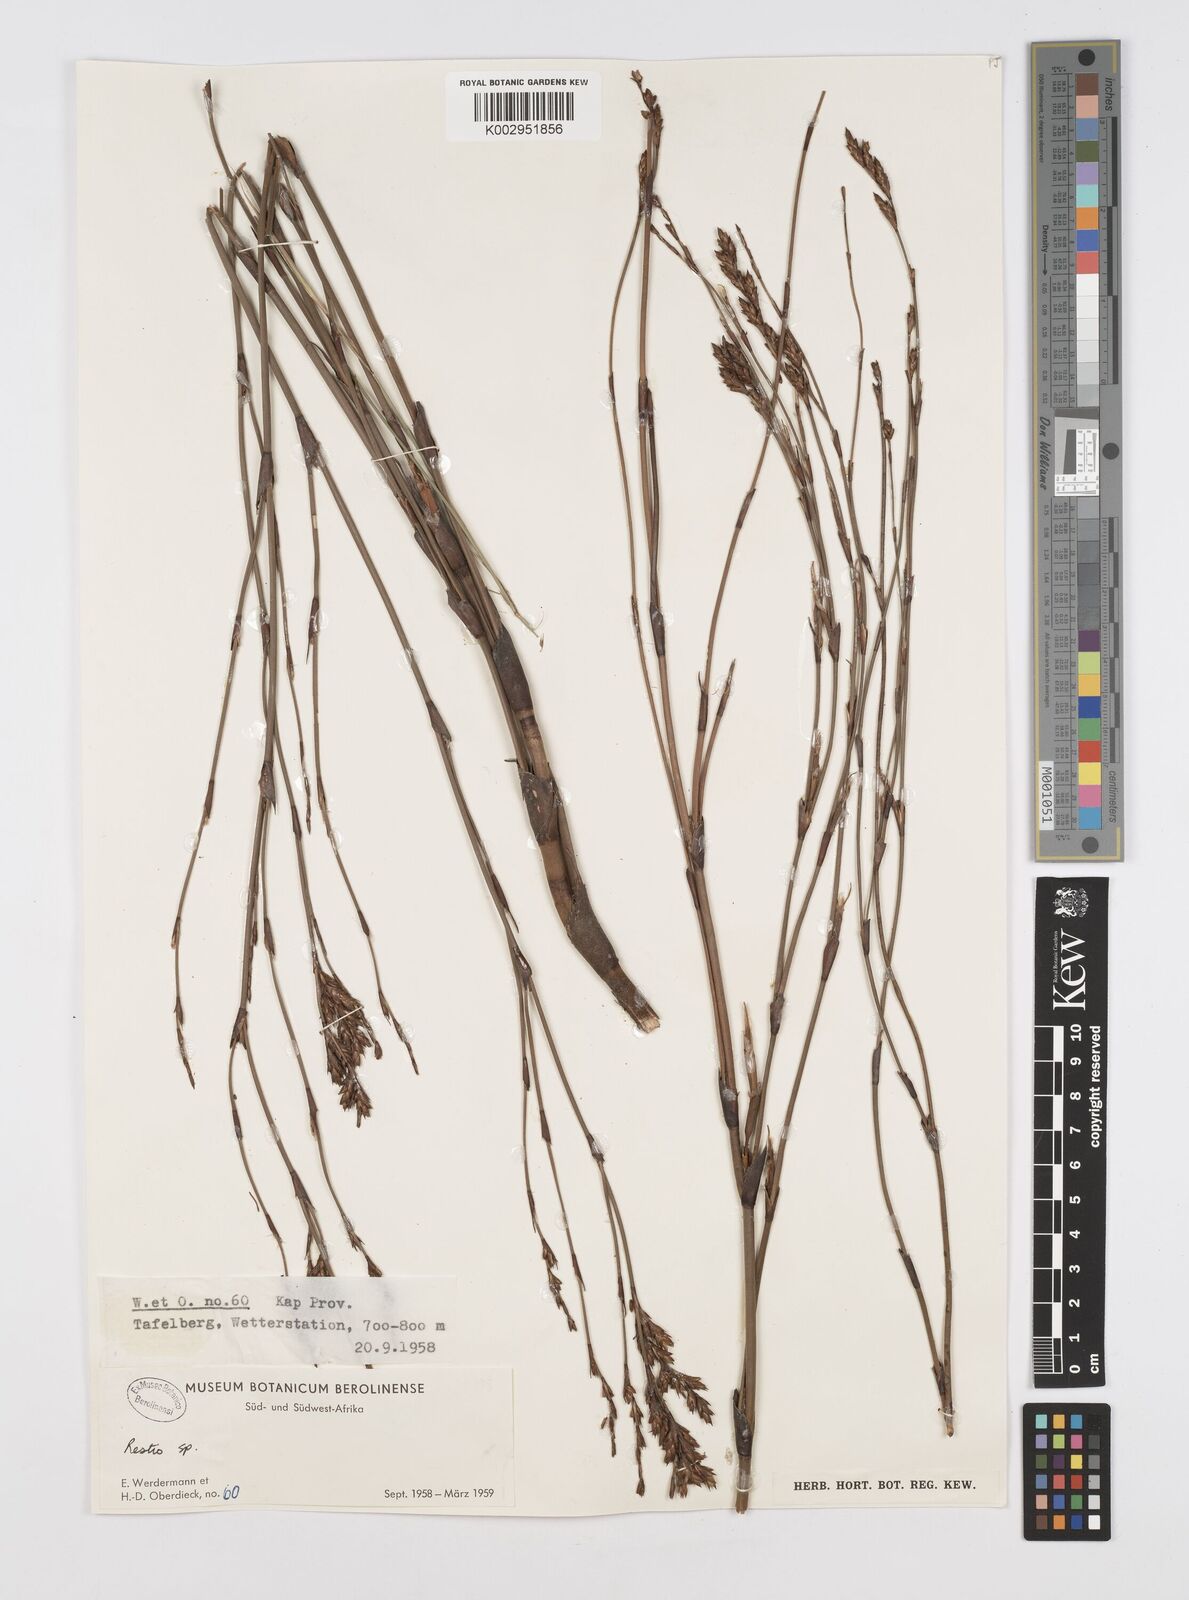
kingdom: Plantae
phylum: Tracheophyta
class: Liliopsida
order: Poales
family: Restionaceae
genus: Restio
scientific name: Restio
